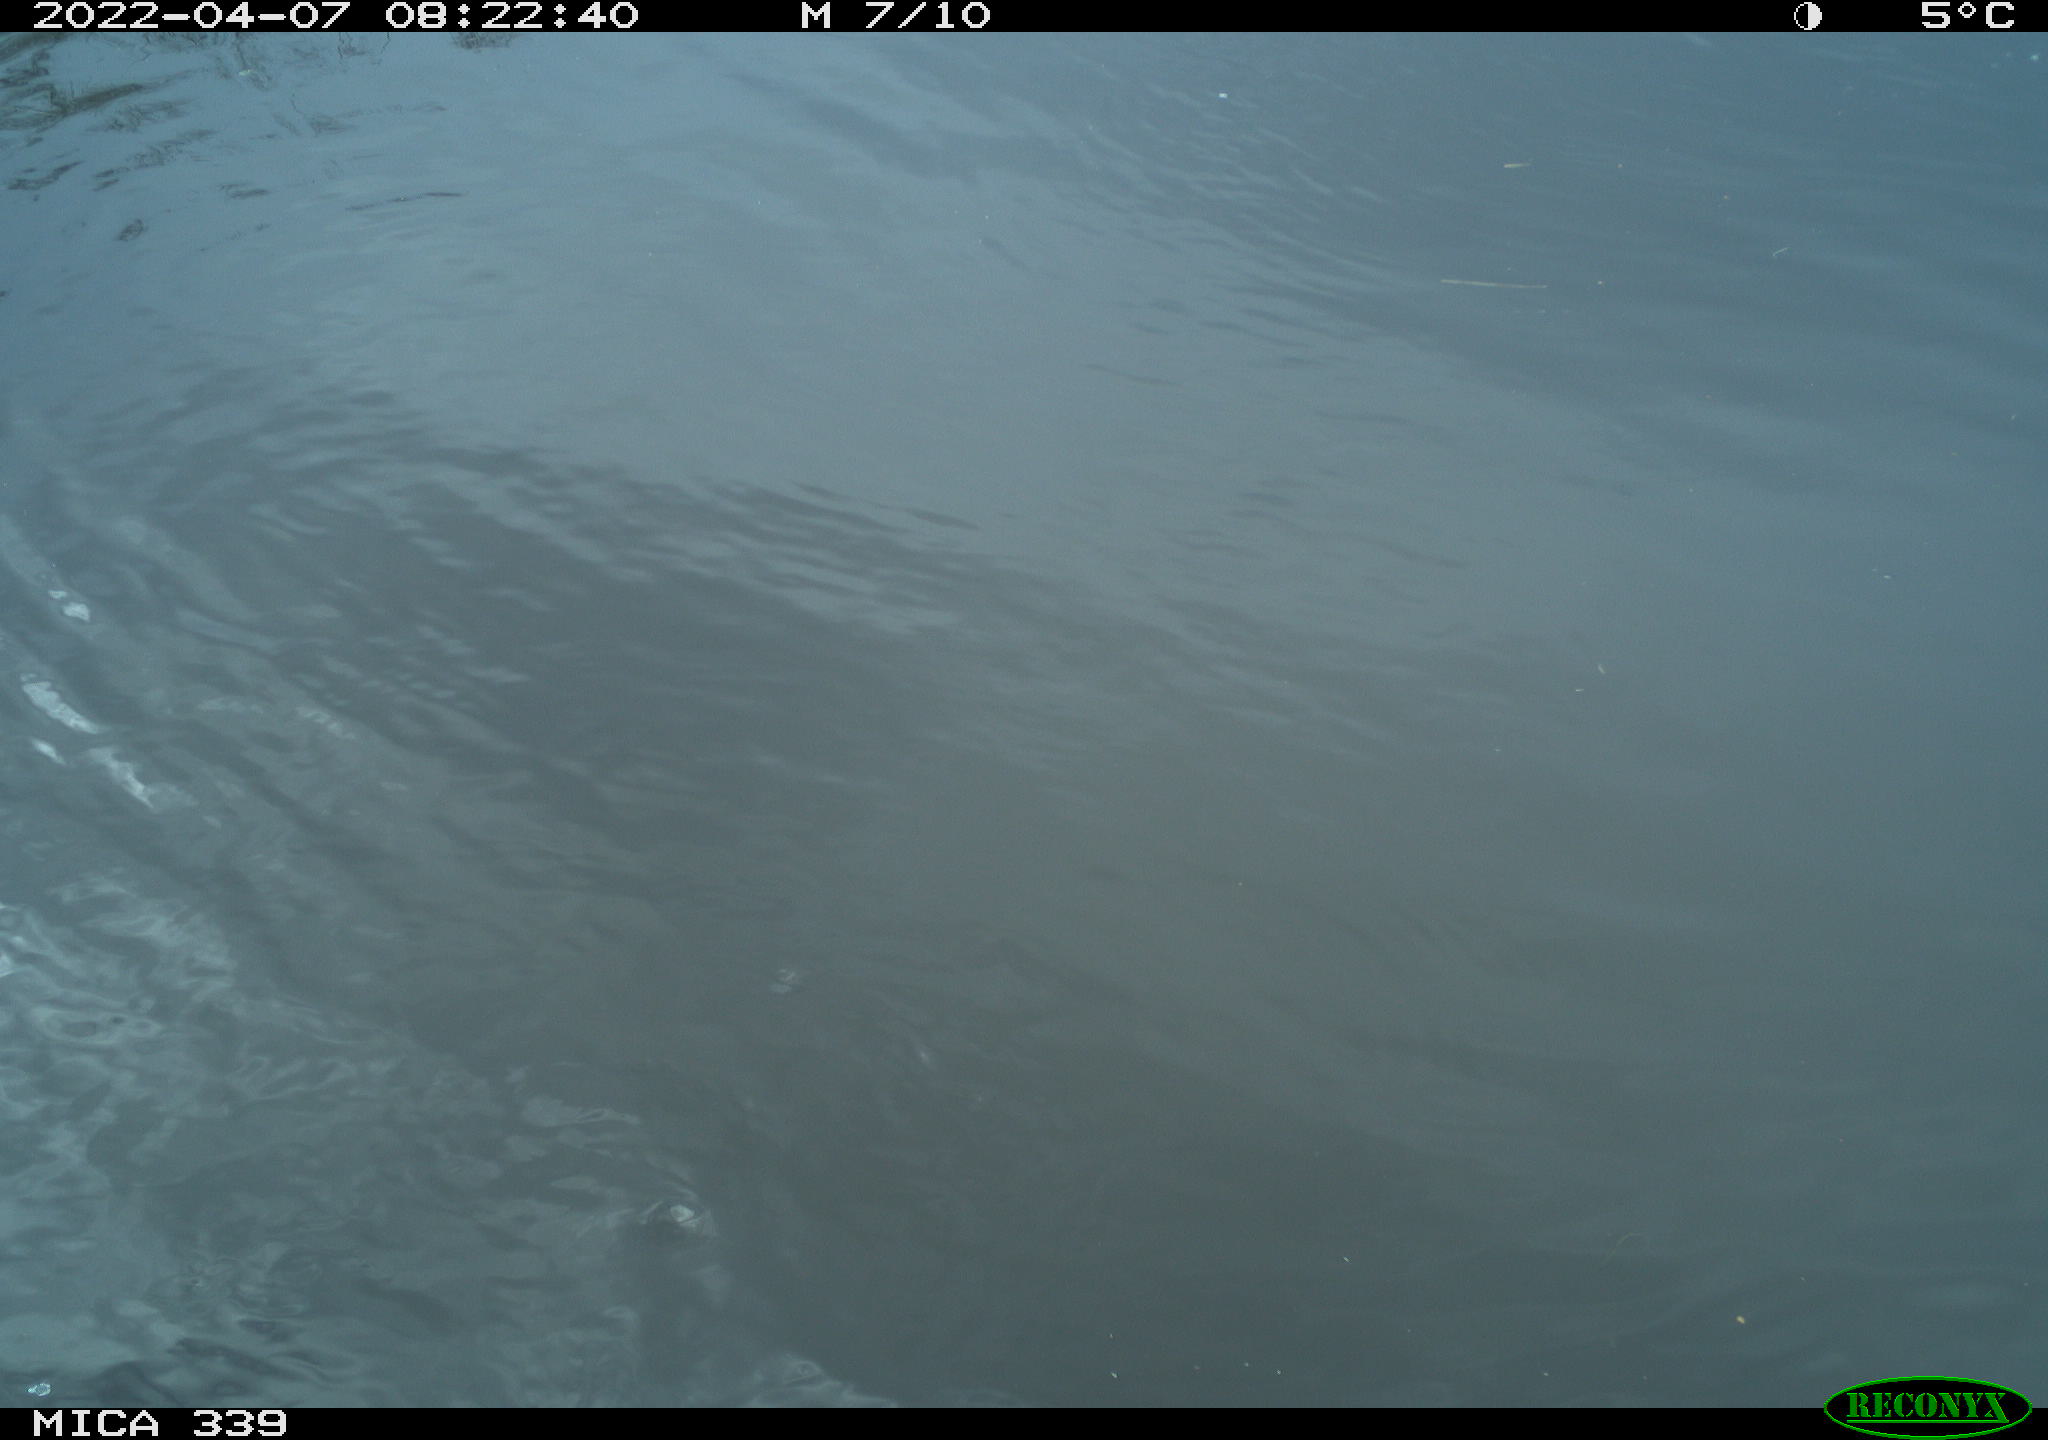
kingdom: Animalia
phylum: Chordata
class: Aves
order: Suliformes
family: Phalacrocoracidae
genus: Phalacrocorax
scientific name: Phalacrocorax carbo
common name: Great cormorant
